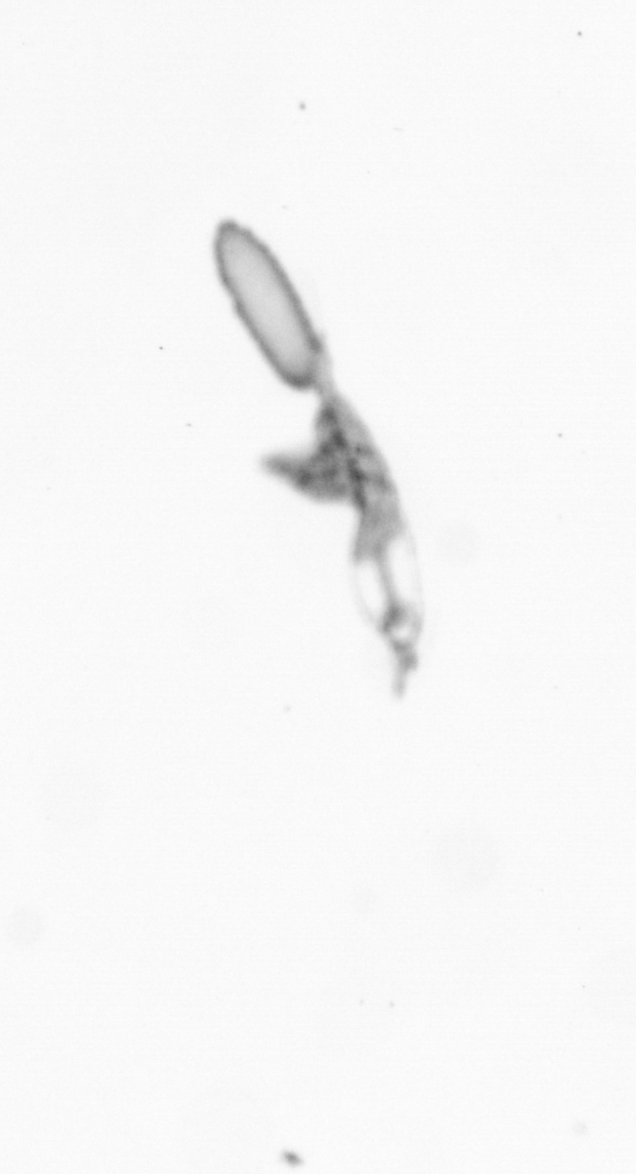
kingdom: Animalia
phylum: Arthropoda
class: Copepoda
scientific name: Copepoda
